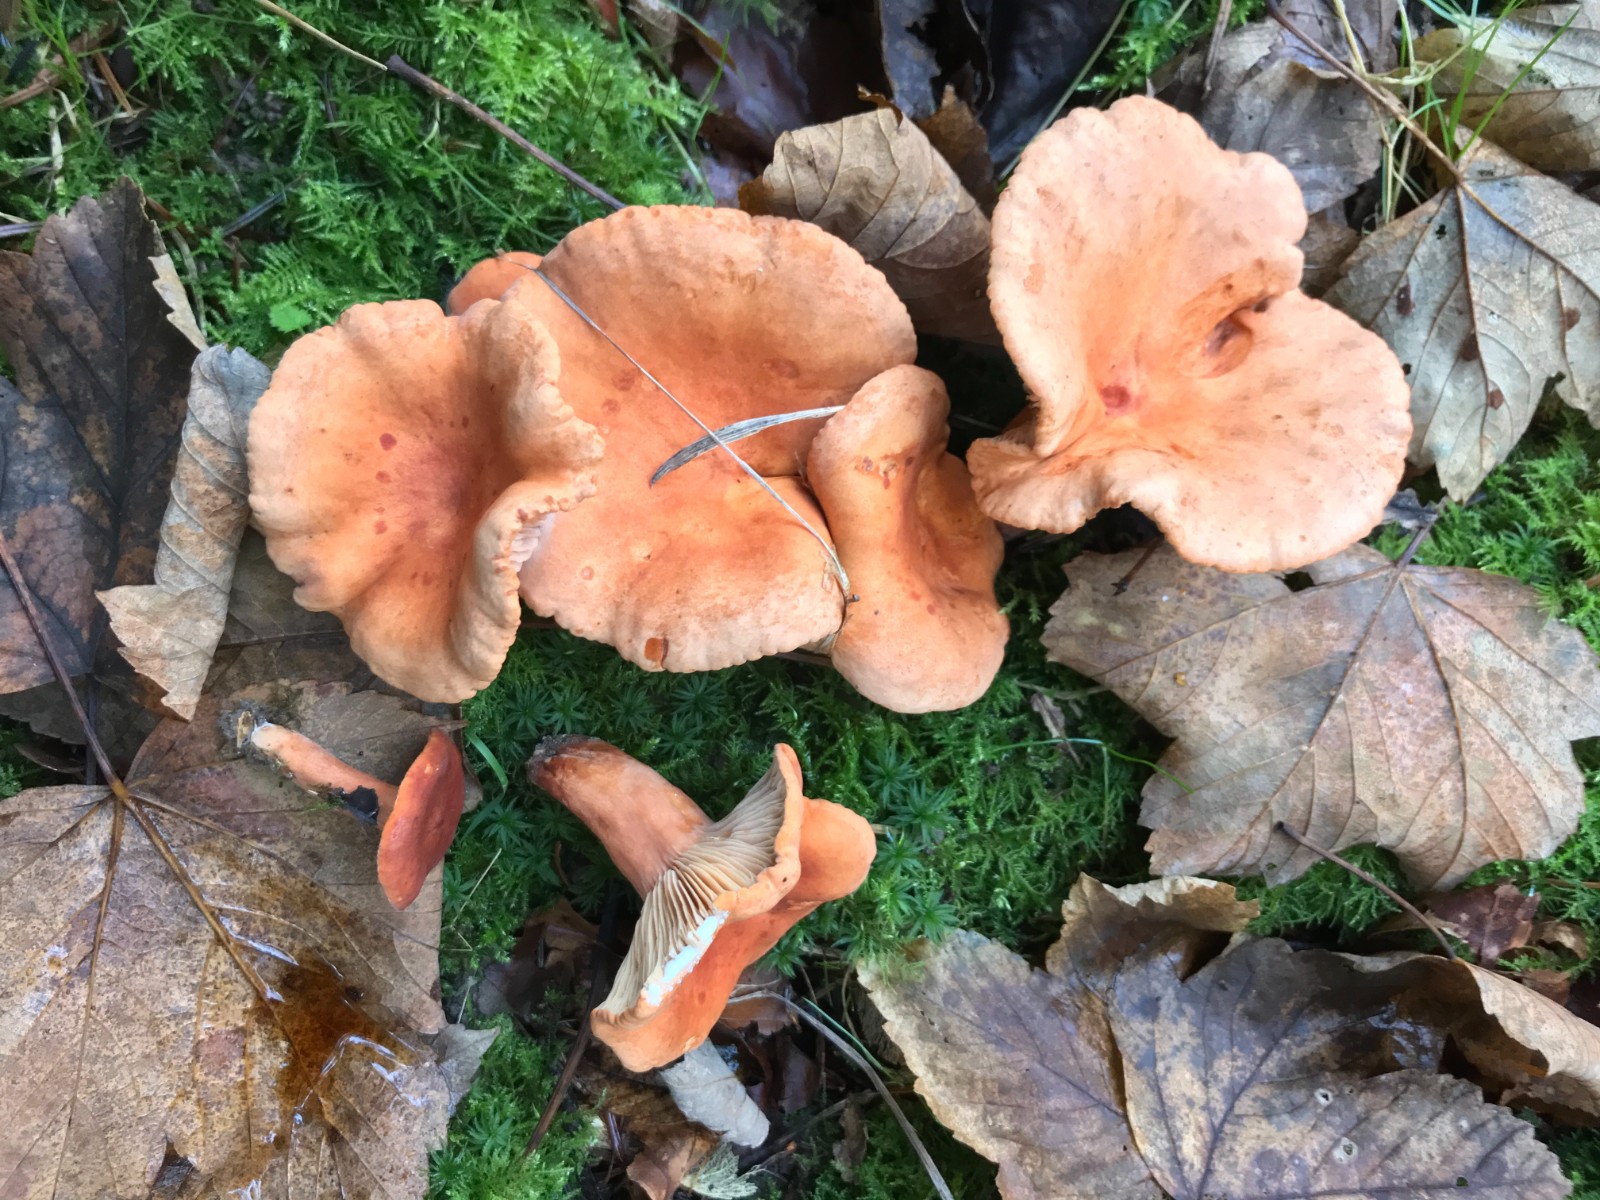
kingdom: Fungi
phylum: Basidiomycota
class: Agaricomycetes
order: Russulales
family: Russulaceae
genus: Lactarius
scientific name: Lactarius fulvissimus
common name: ræve-mælkehat
